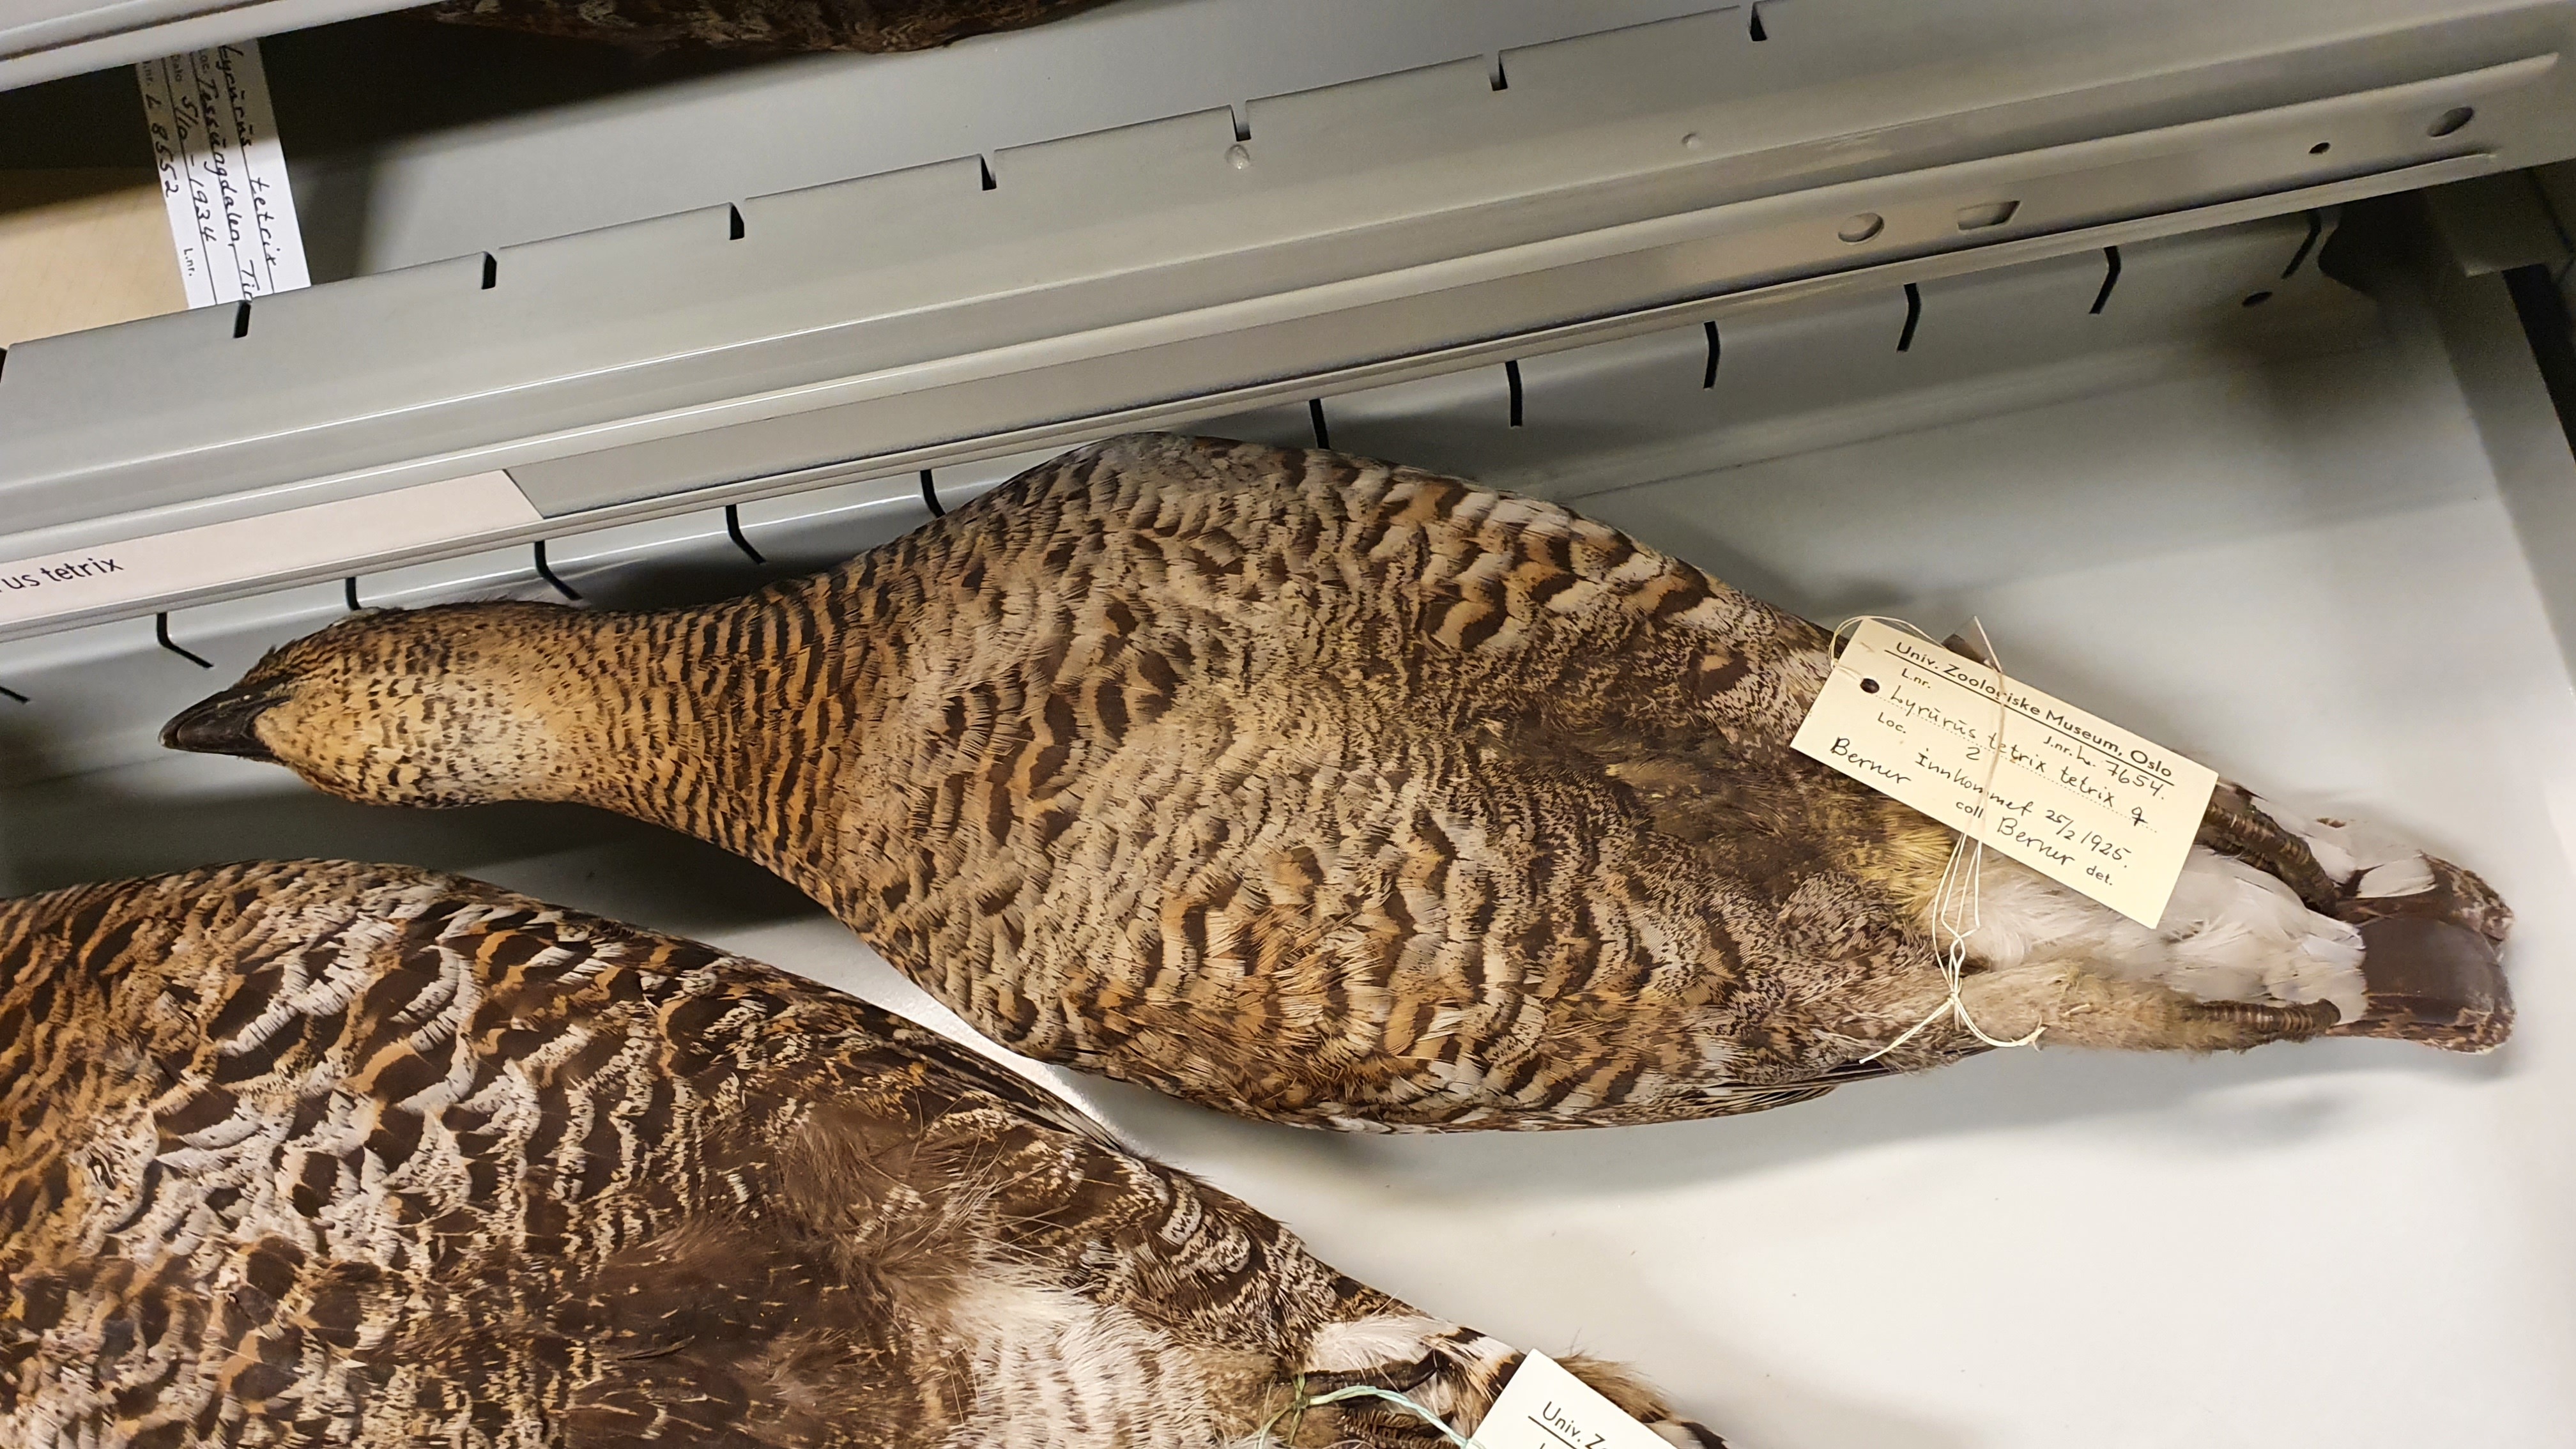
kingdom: Animalia
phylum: Chordata
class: Aves
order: Galliformes
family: Phasianidae
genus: Lyrurus
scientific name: Lyrurus tetrix
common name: Black grouse
